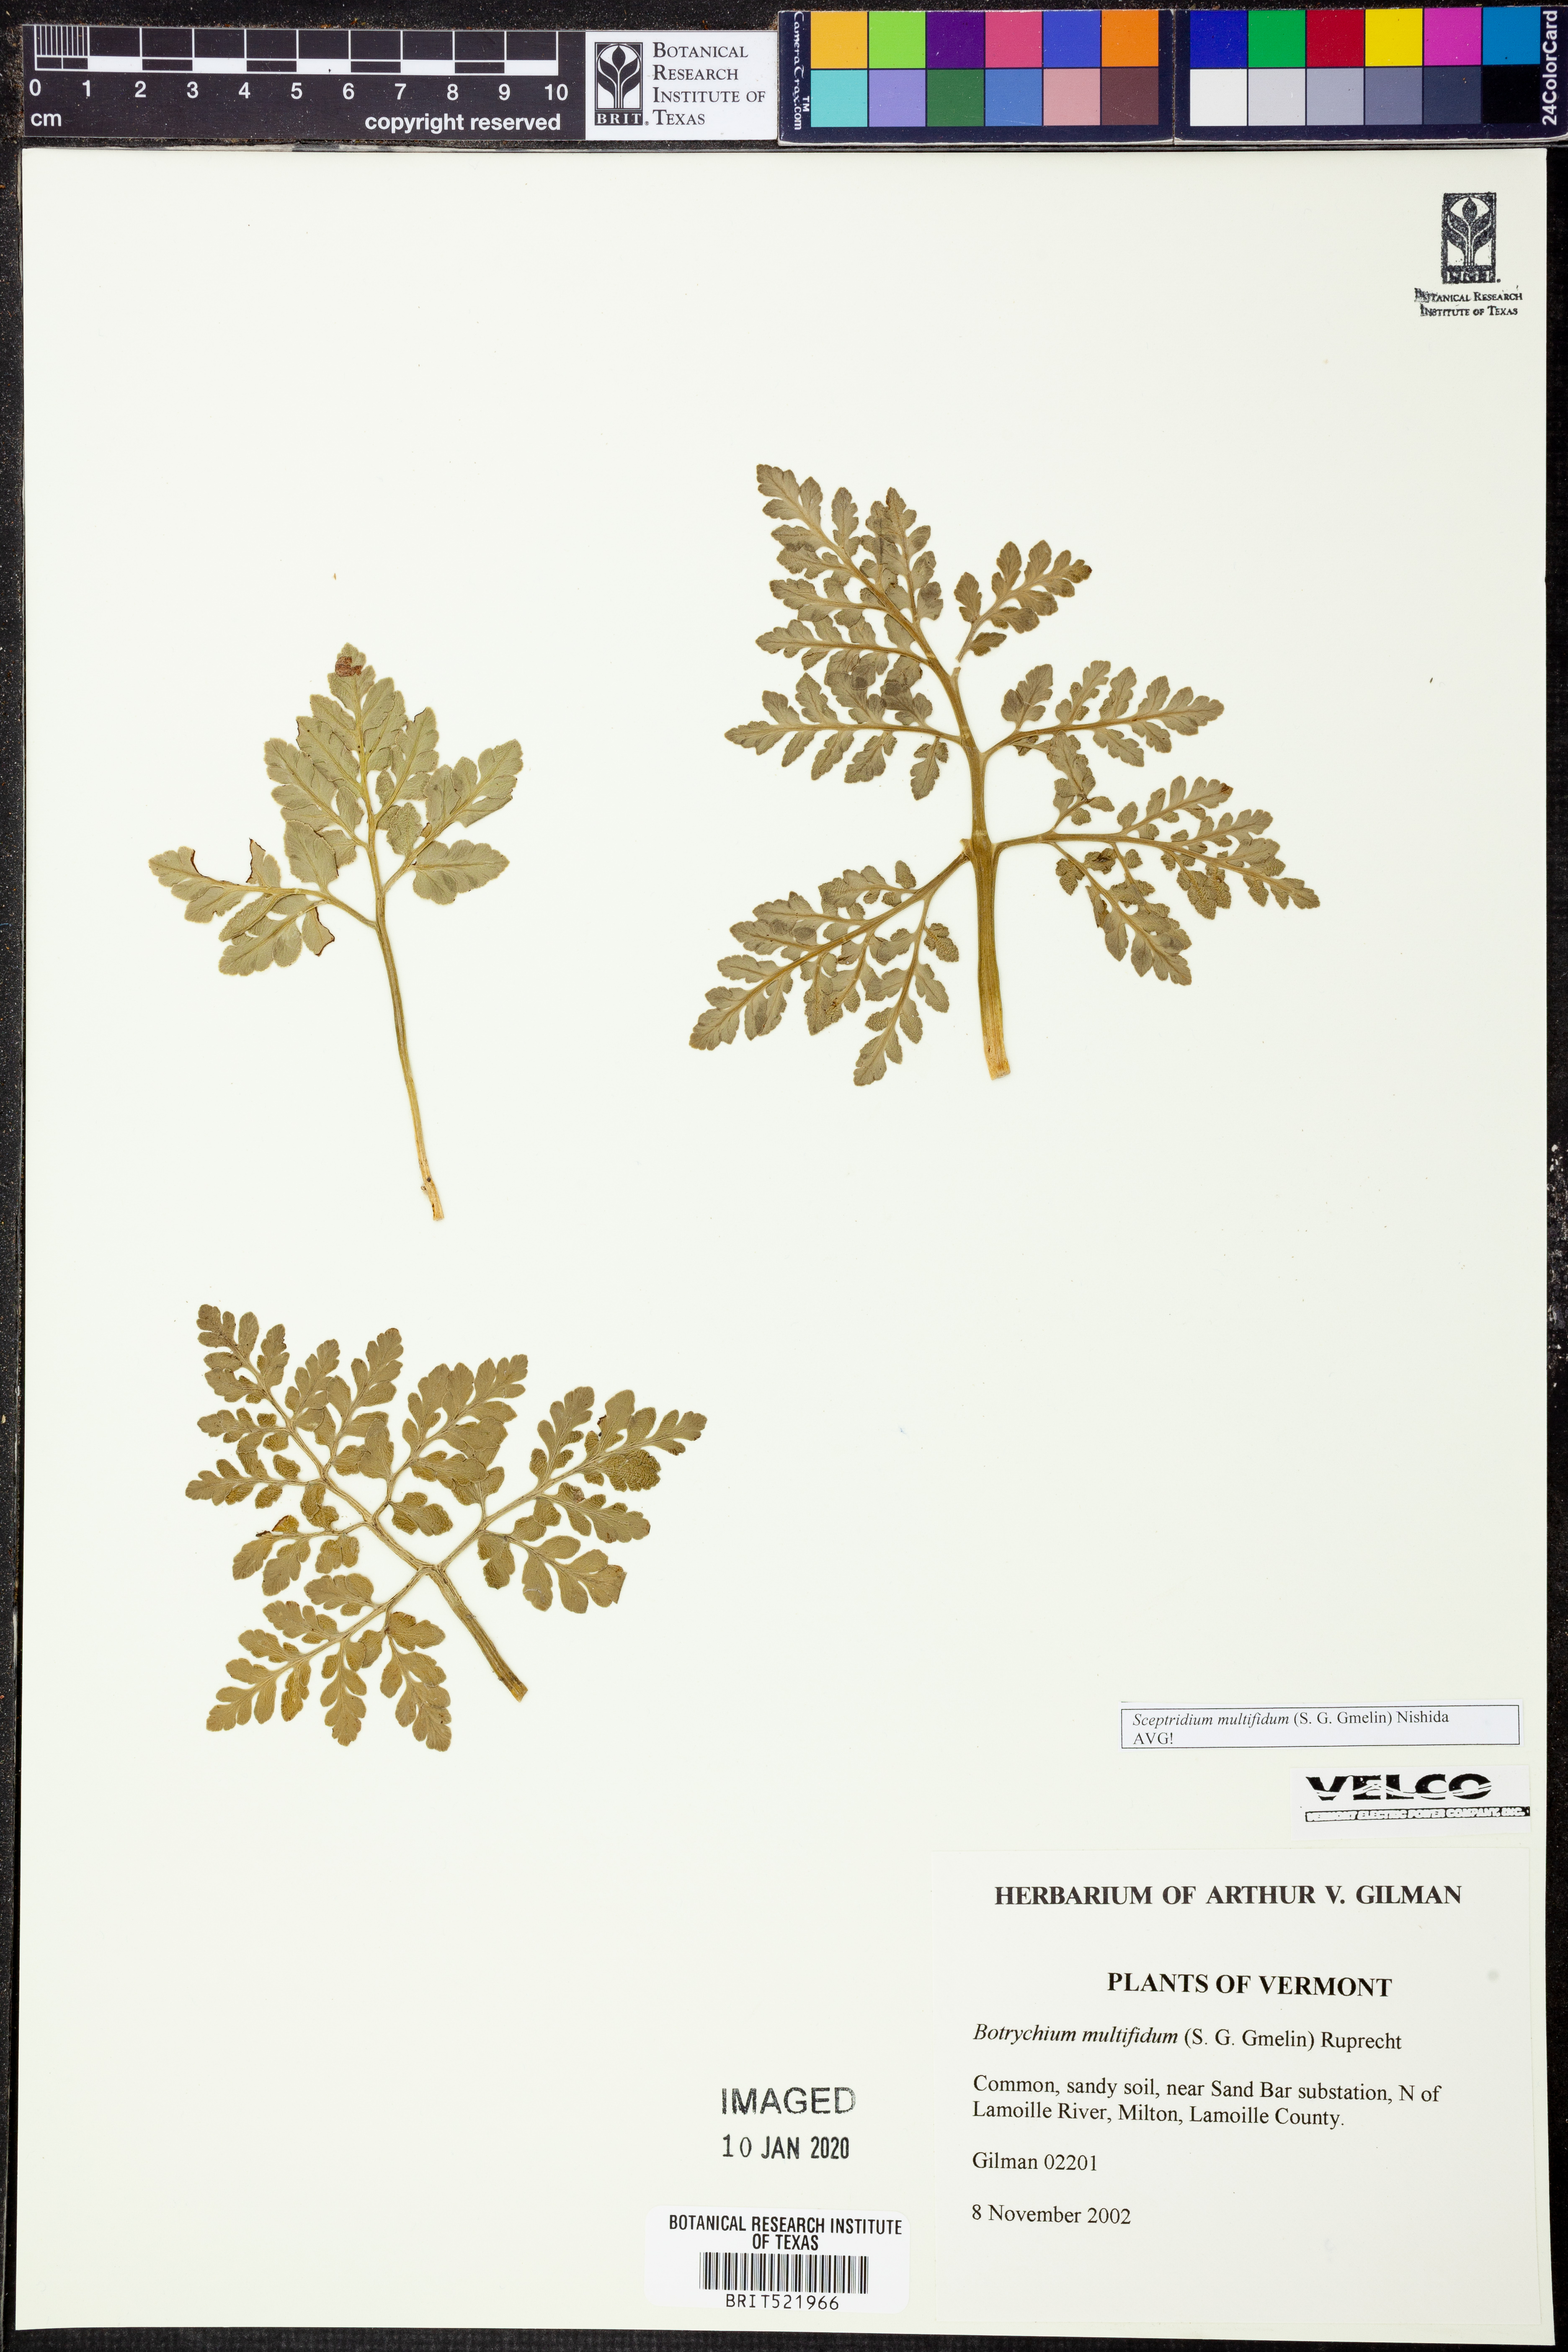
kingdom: Plantae
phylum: Tracheophyta
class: Polypodiopsida
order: Ophioglossales
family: Ophioglossaceae
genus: Sceptridium
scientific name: Sceptridium multifidum
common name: Leathery grape fern
